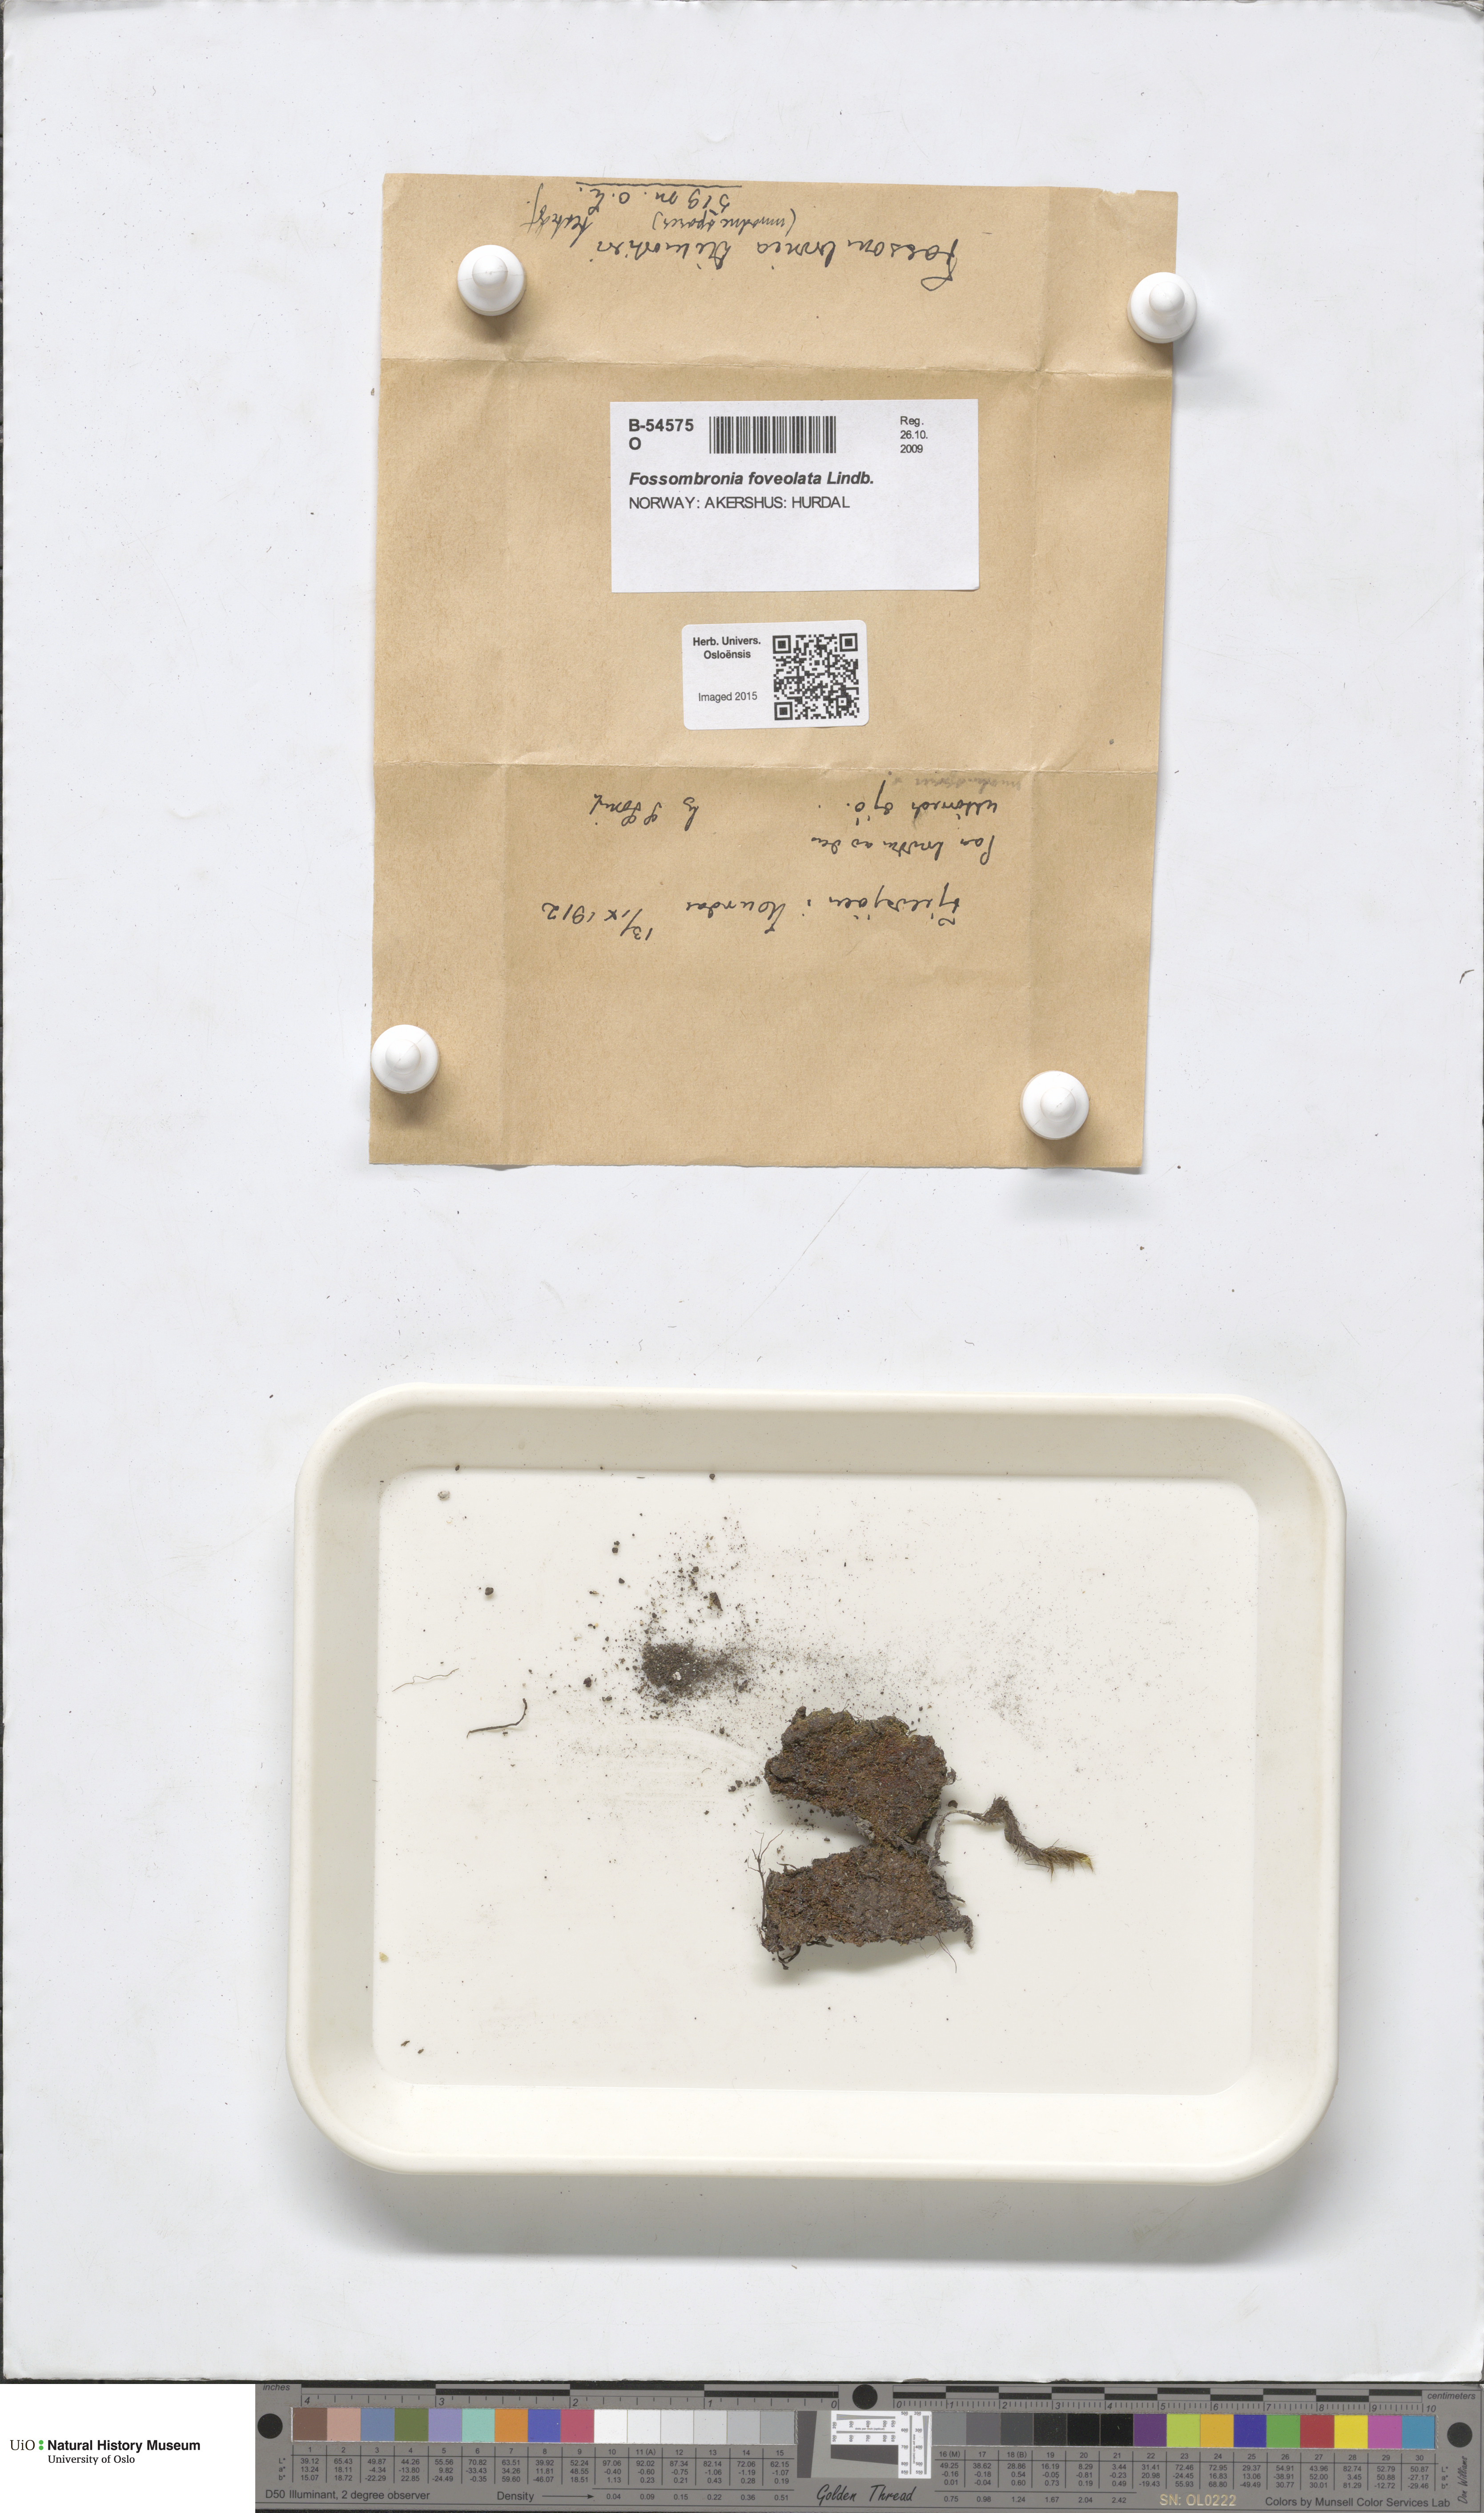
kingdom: Plantae
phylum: Marchantiophyta
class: Jungermanniopsida
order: Fossombroniales
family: Fossombroniaceae
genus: Fossombronia
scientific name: Fossombronia foveolata
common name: Pitted frillwort
